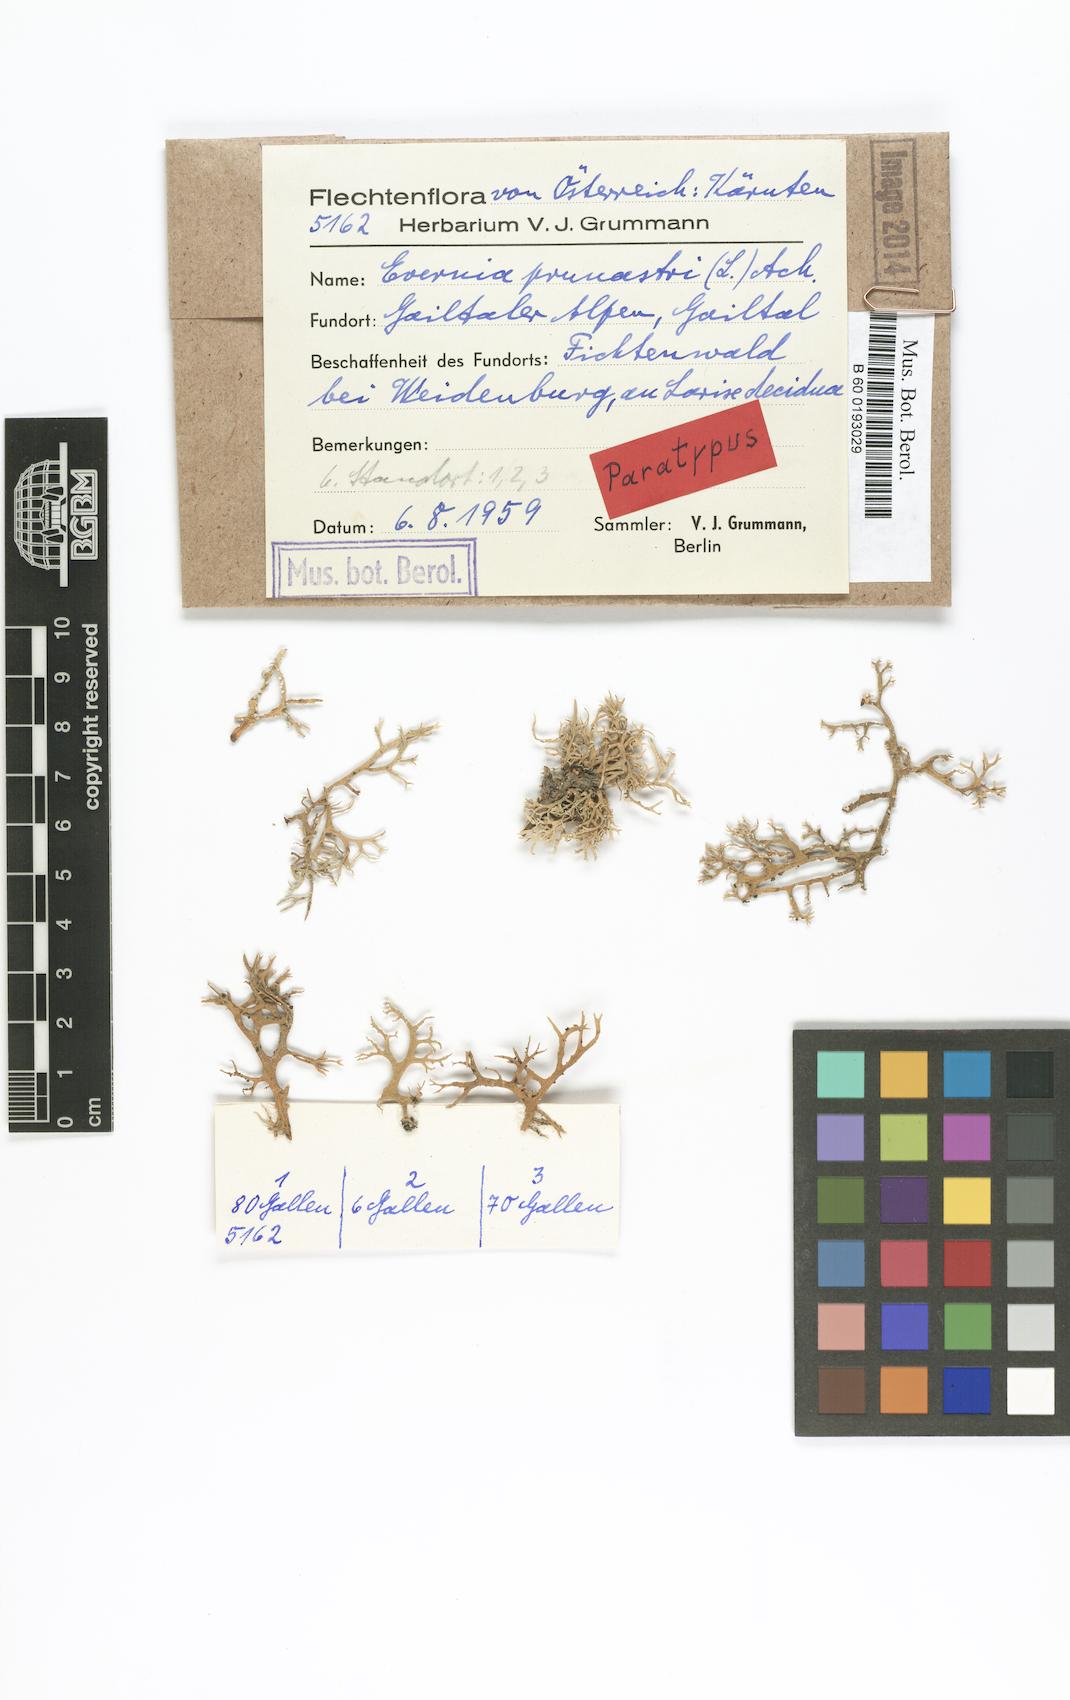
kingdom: Fungi
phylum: Ascomycota
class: Lecanoromycetes
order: Lecanorales
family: Parmeliaceae
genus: Evernia
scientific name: Evernia prunastri
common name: Oak moss
